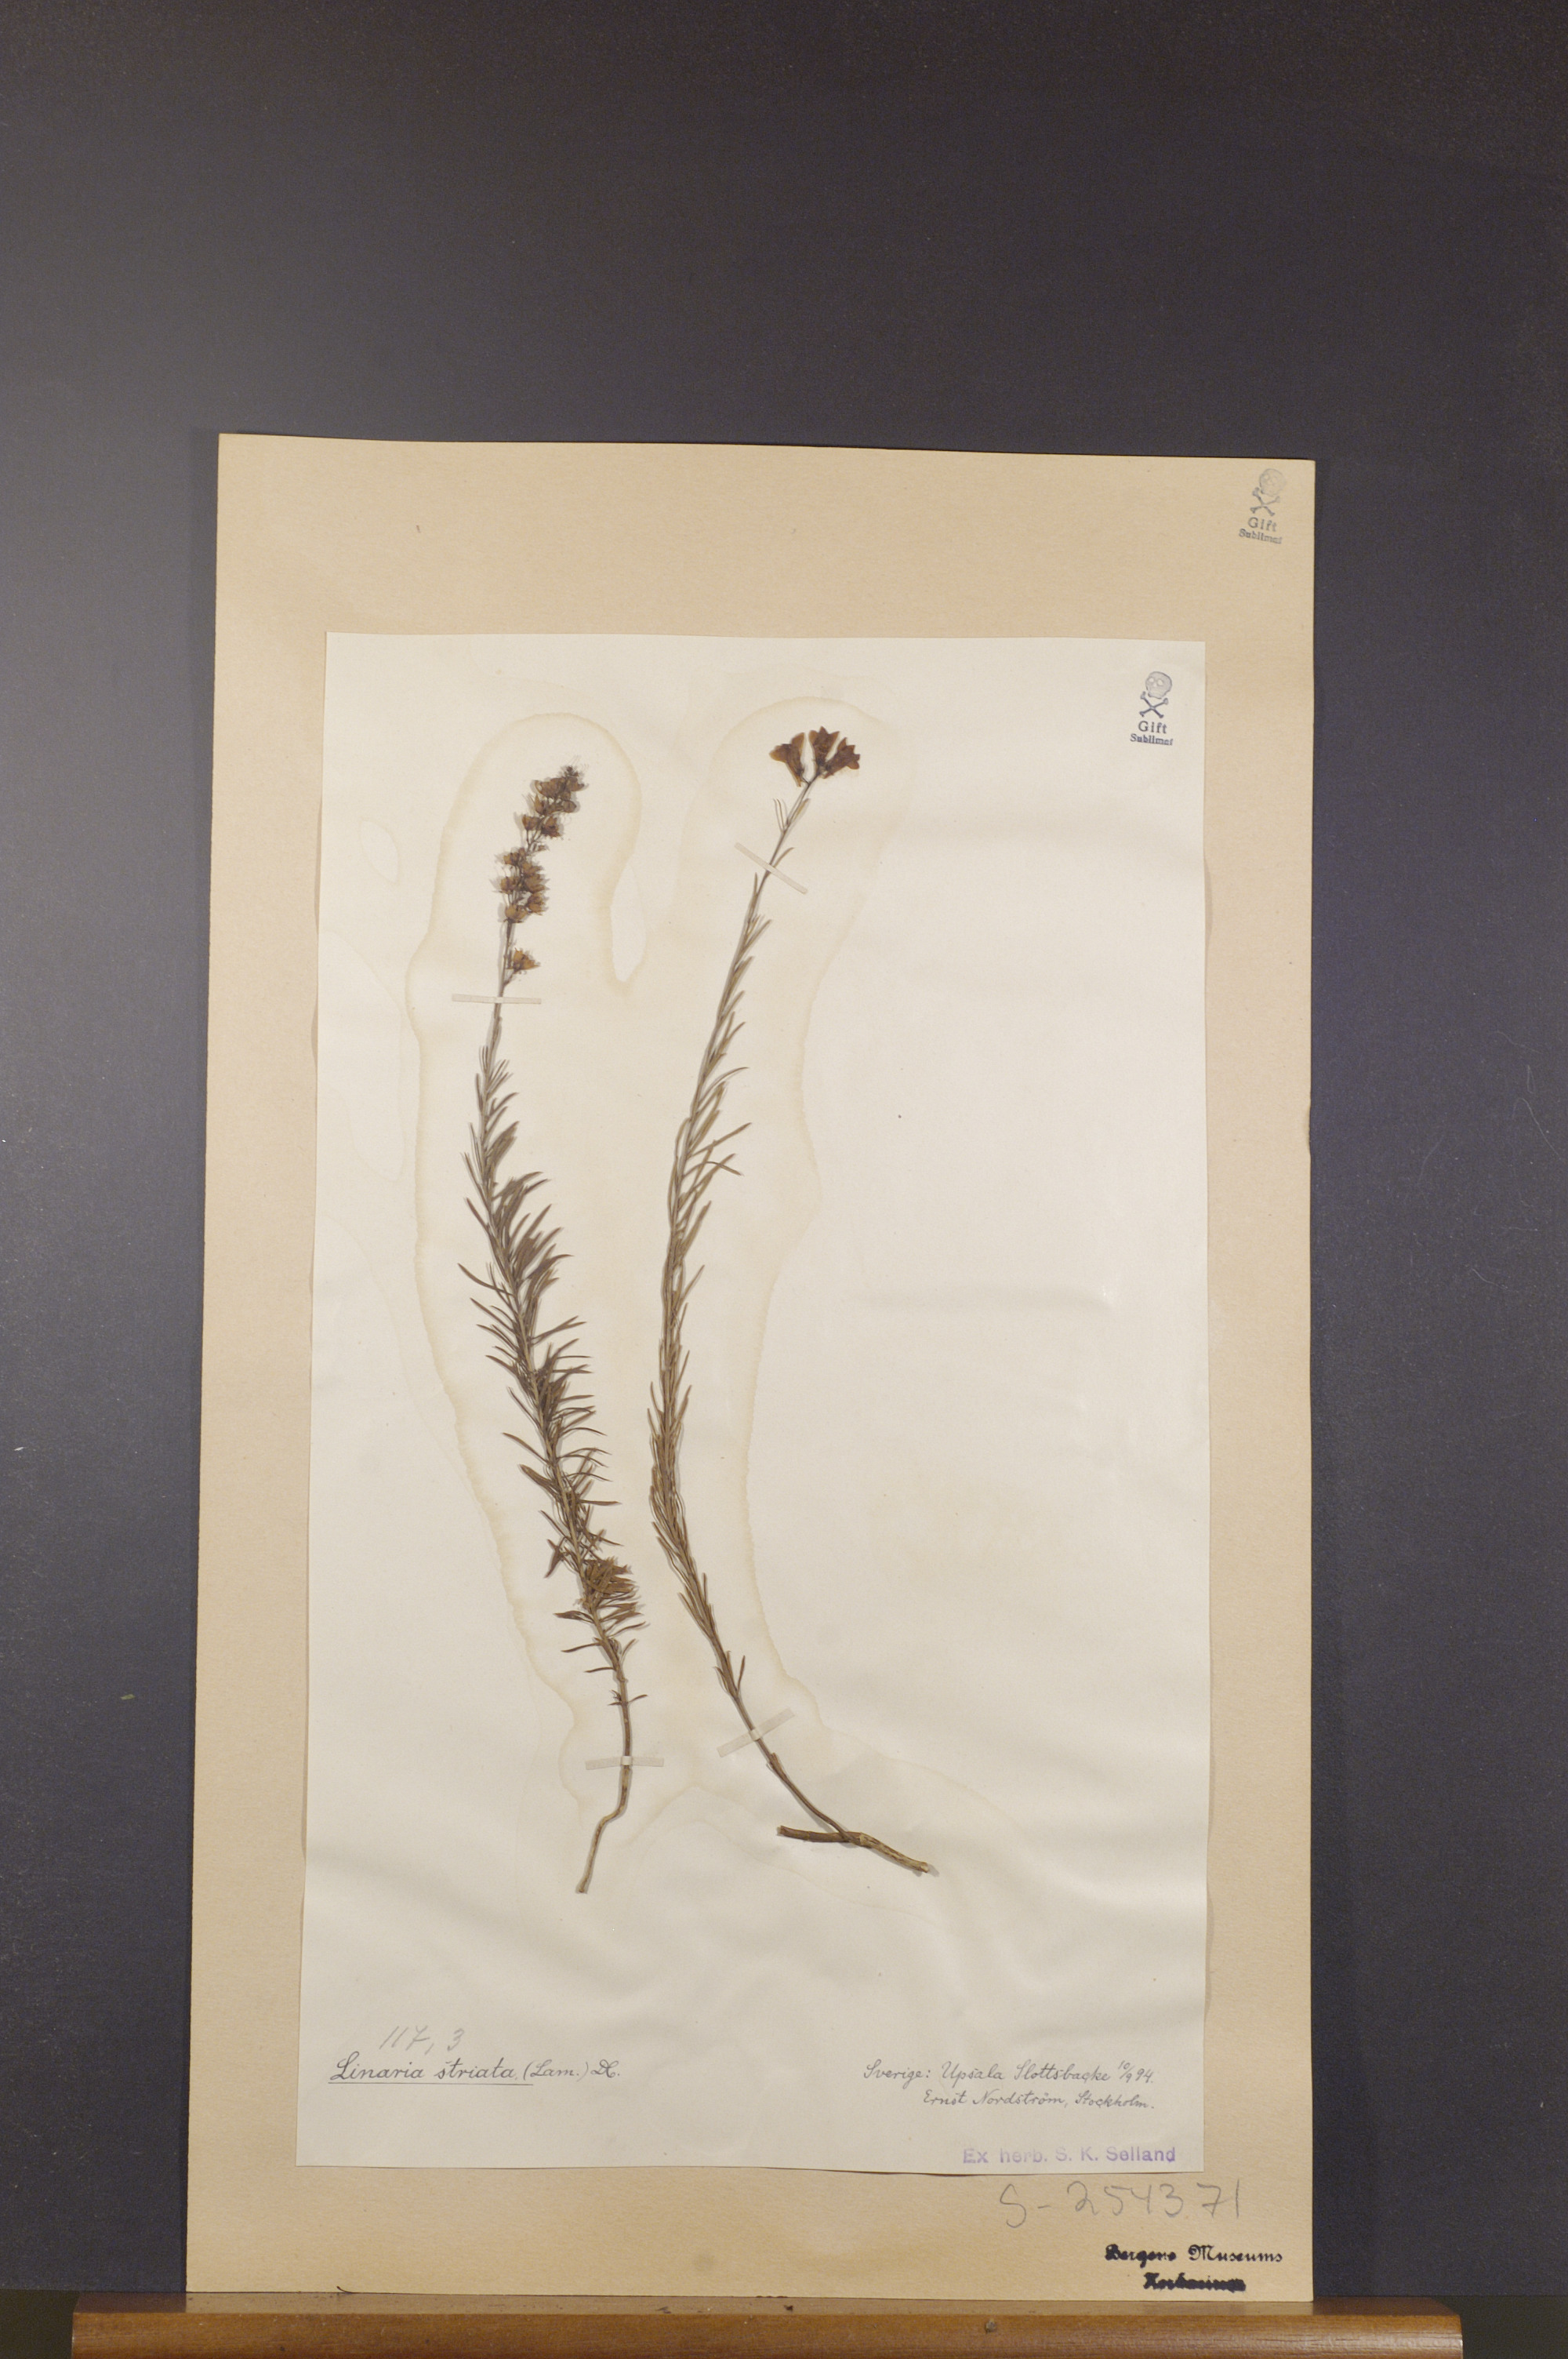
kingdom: Plantae
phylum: Tracheophyta
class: Magnoliopsida
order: Lamiales
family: Plantaginaceae
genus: Linaria
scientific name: Linaria repens
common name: Pale toadflax
